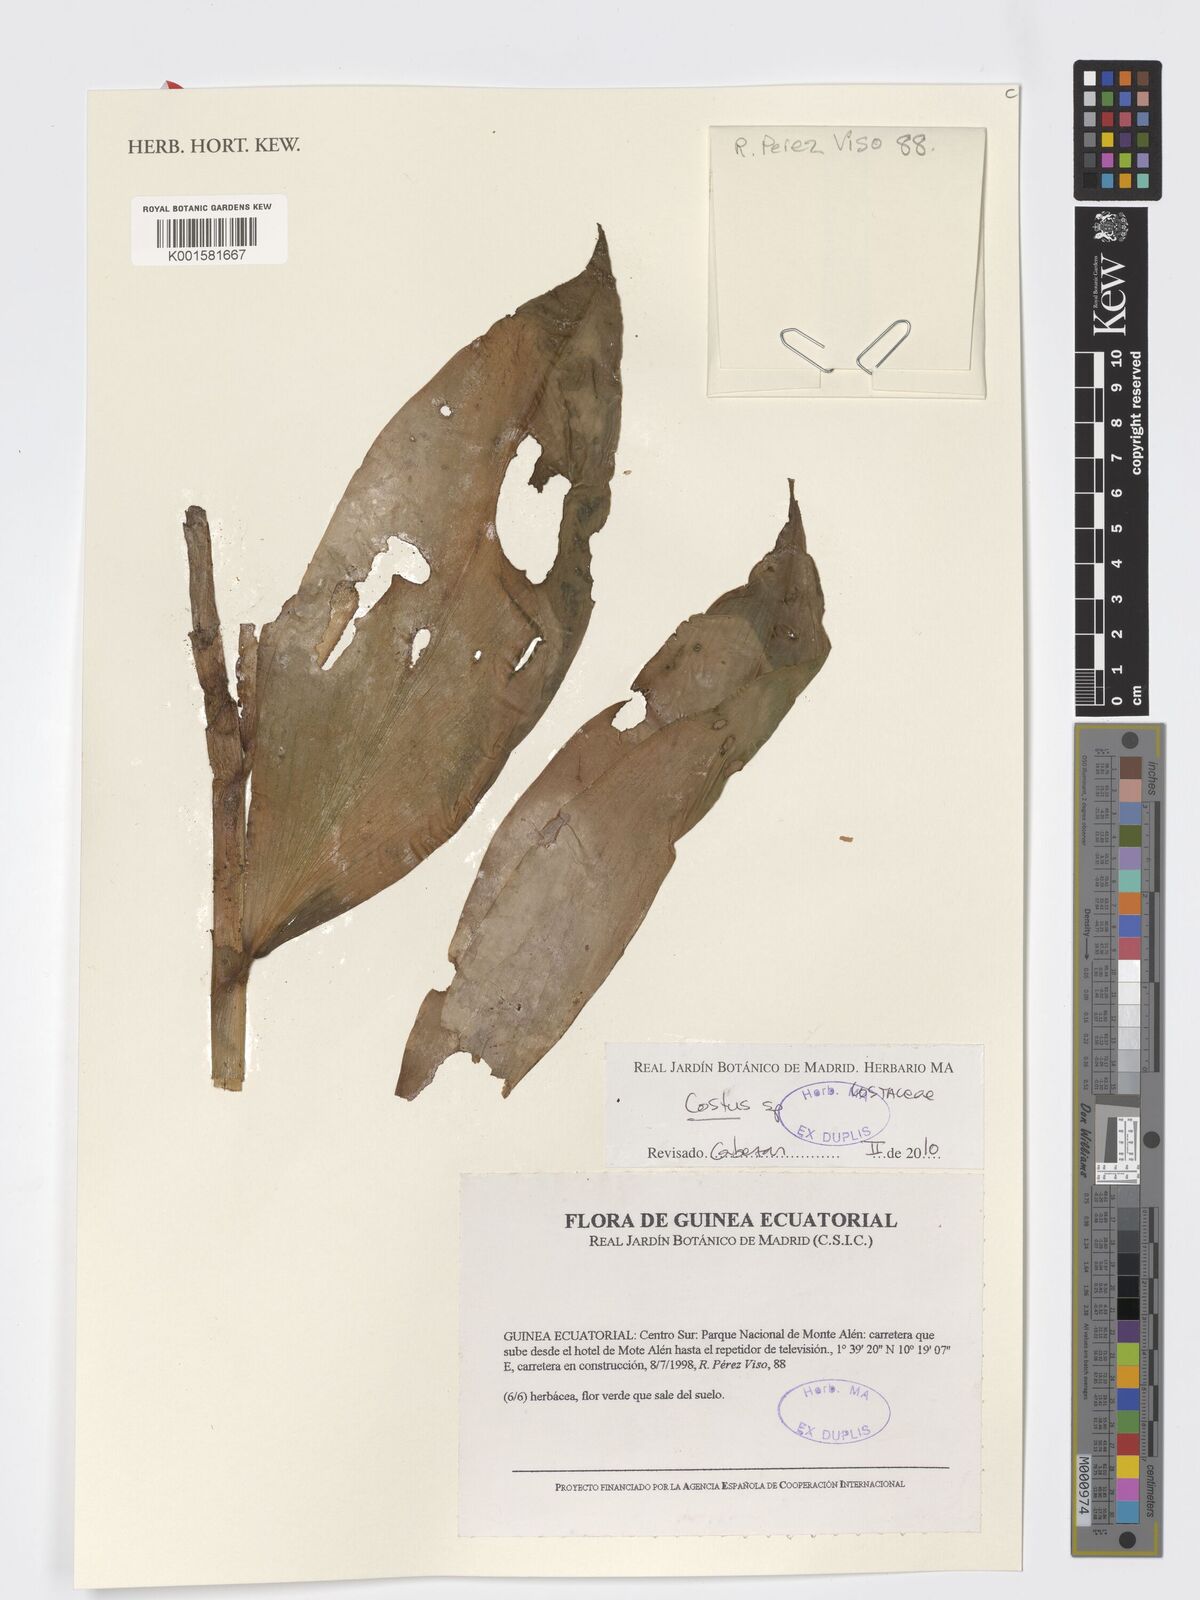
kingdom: Plantae
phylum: Tracheophyta
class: Liliopsida
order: Zingiberales
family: Costaceae
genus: Costus
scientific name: Costus
